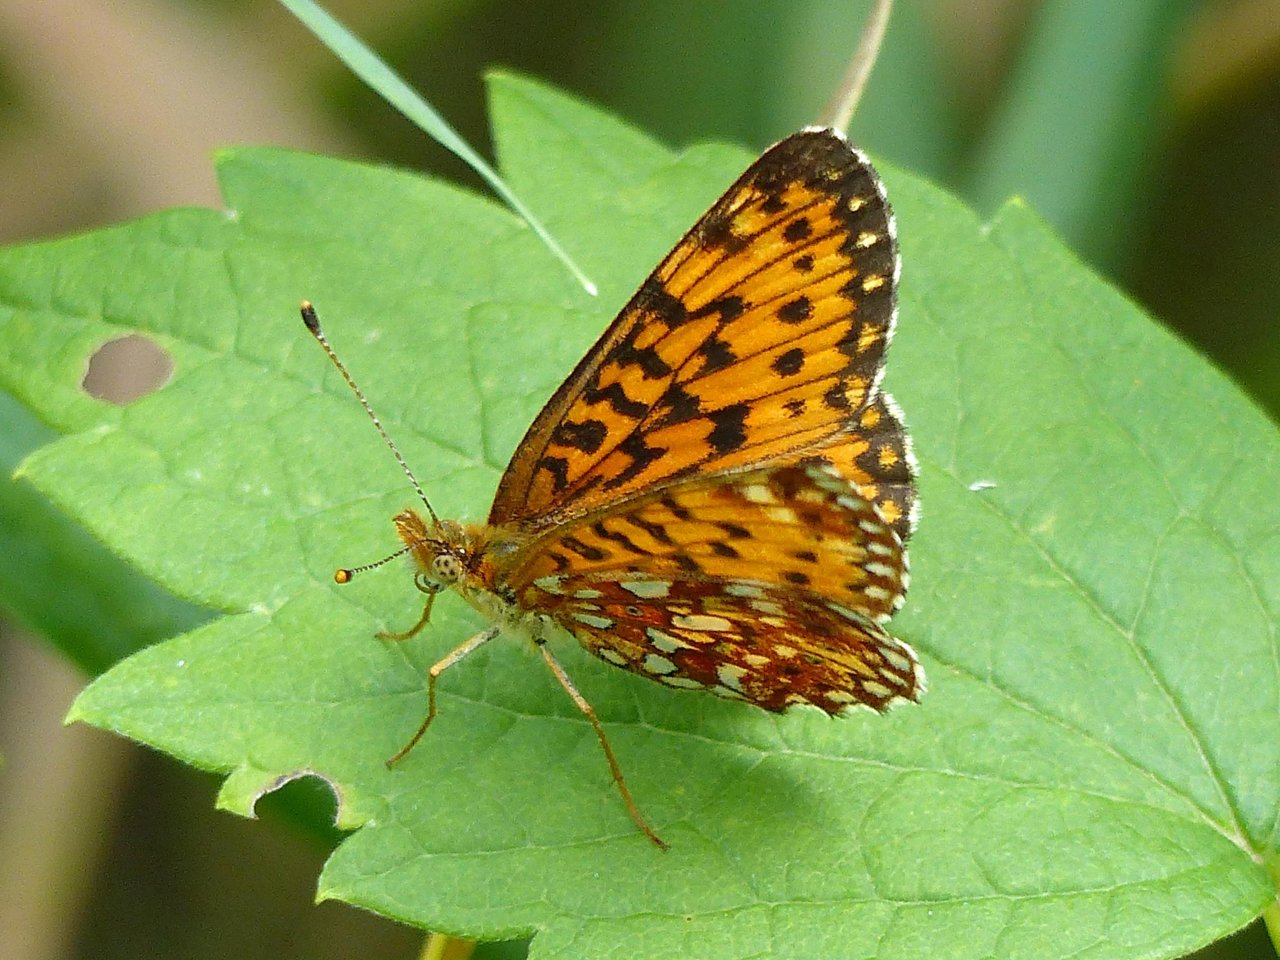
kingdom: Animalia
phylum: Arthropoda
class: Insecta
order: Lepidoptera
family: Nymphalidae
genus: Boloria
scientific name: Boloria selene
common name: Silver-bordered Fritillary
